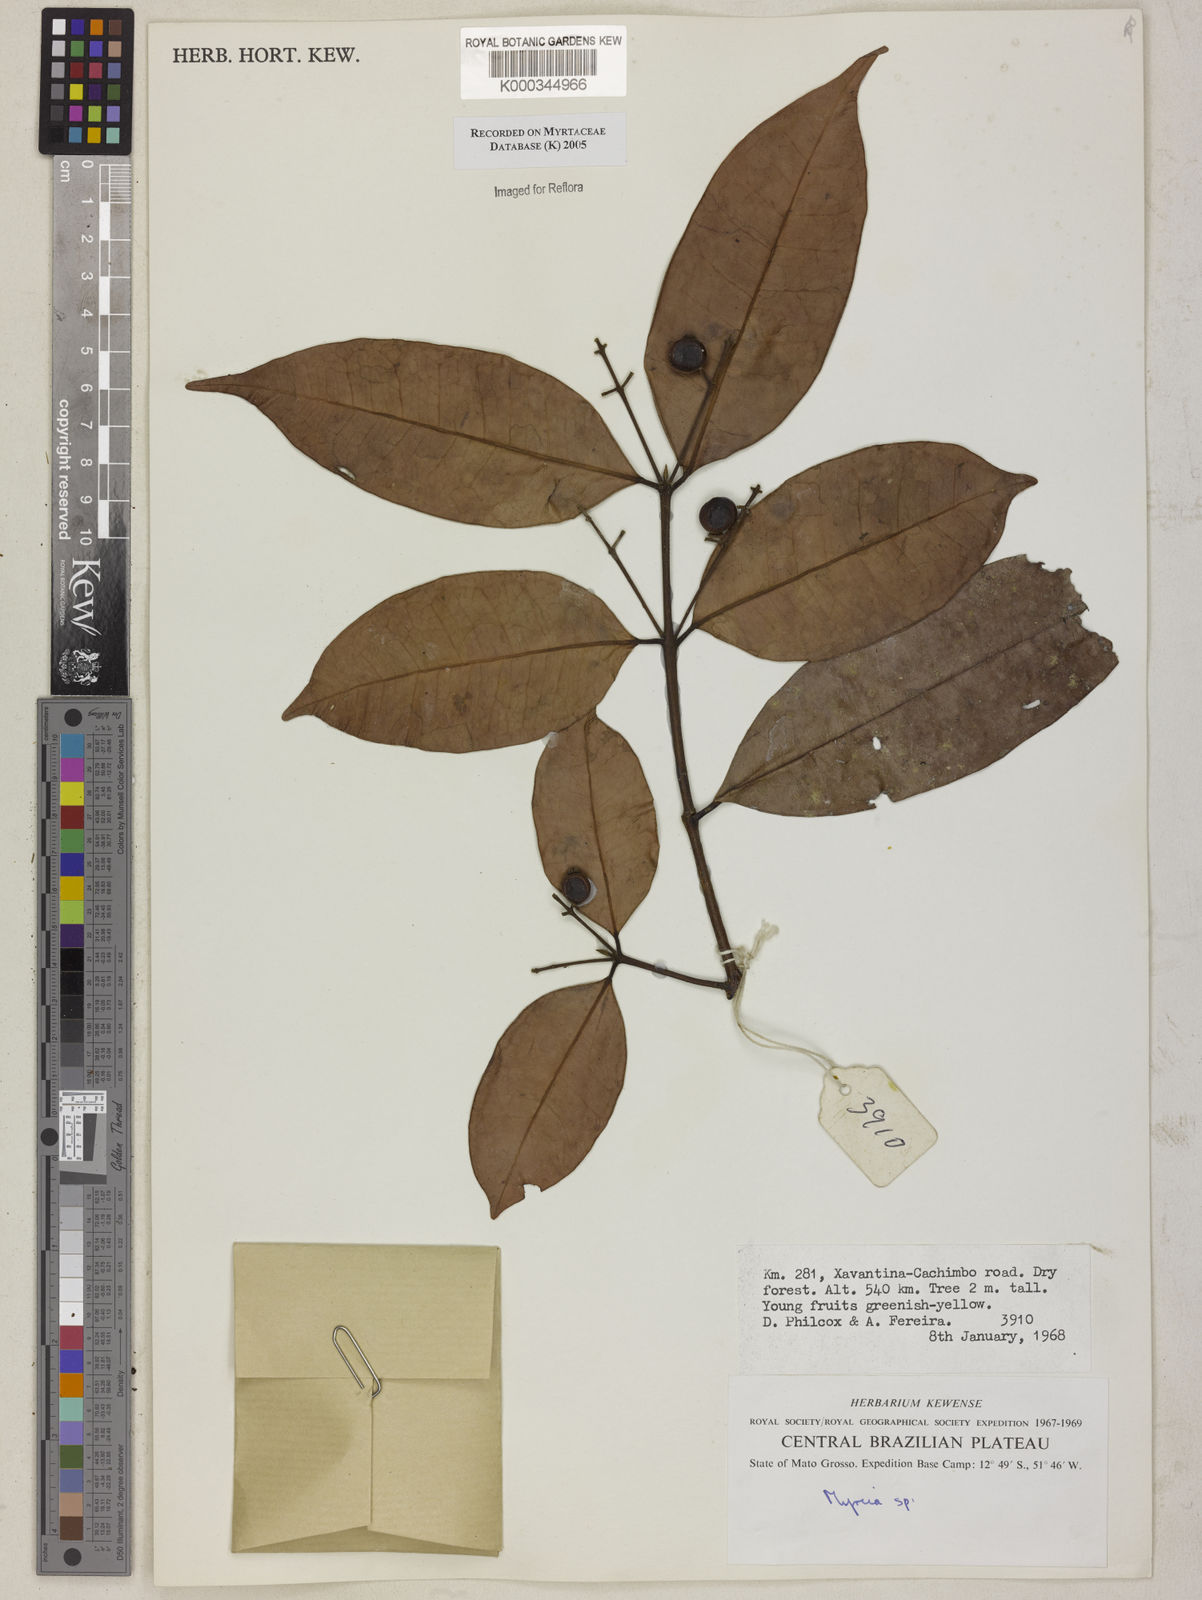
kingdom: Plantae
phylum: Tracheophyta
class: Magnoliopsida
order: Myrtales
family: Myrtaceae
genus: Myrcia
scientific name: Myrcia
